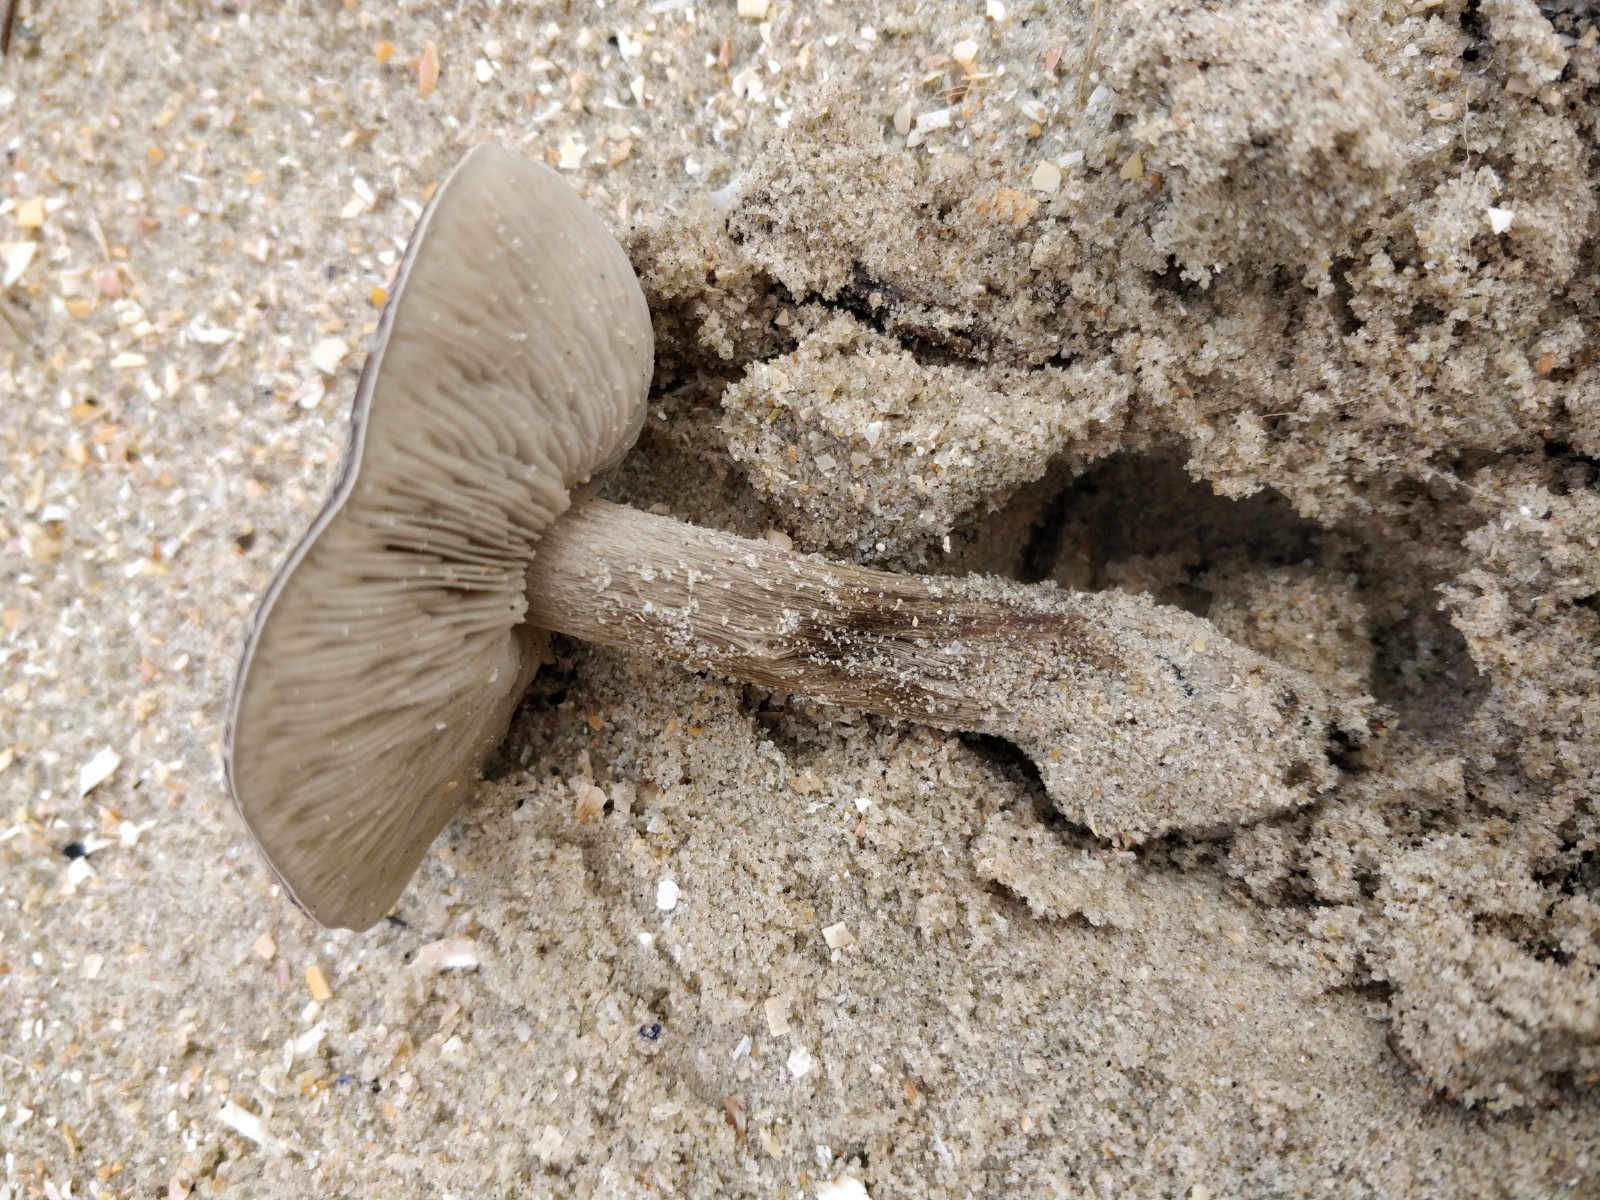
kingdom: Fungi
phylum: Basidiomycota
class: Agaricomycetes
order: Agaricales
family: Tricholomataceae
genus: Melanoleuca
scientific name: Melanoleuca ammophila
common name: gråbladet munkehat
